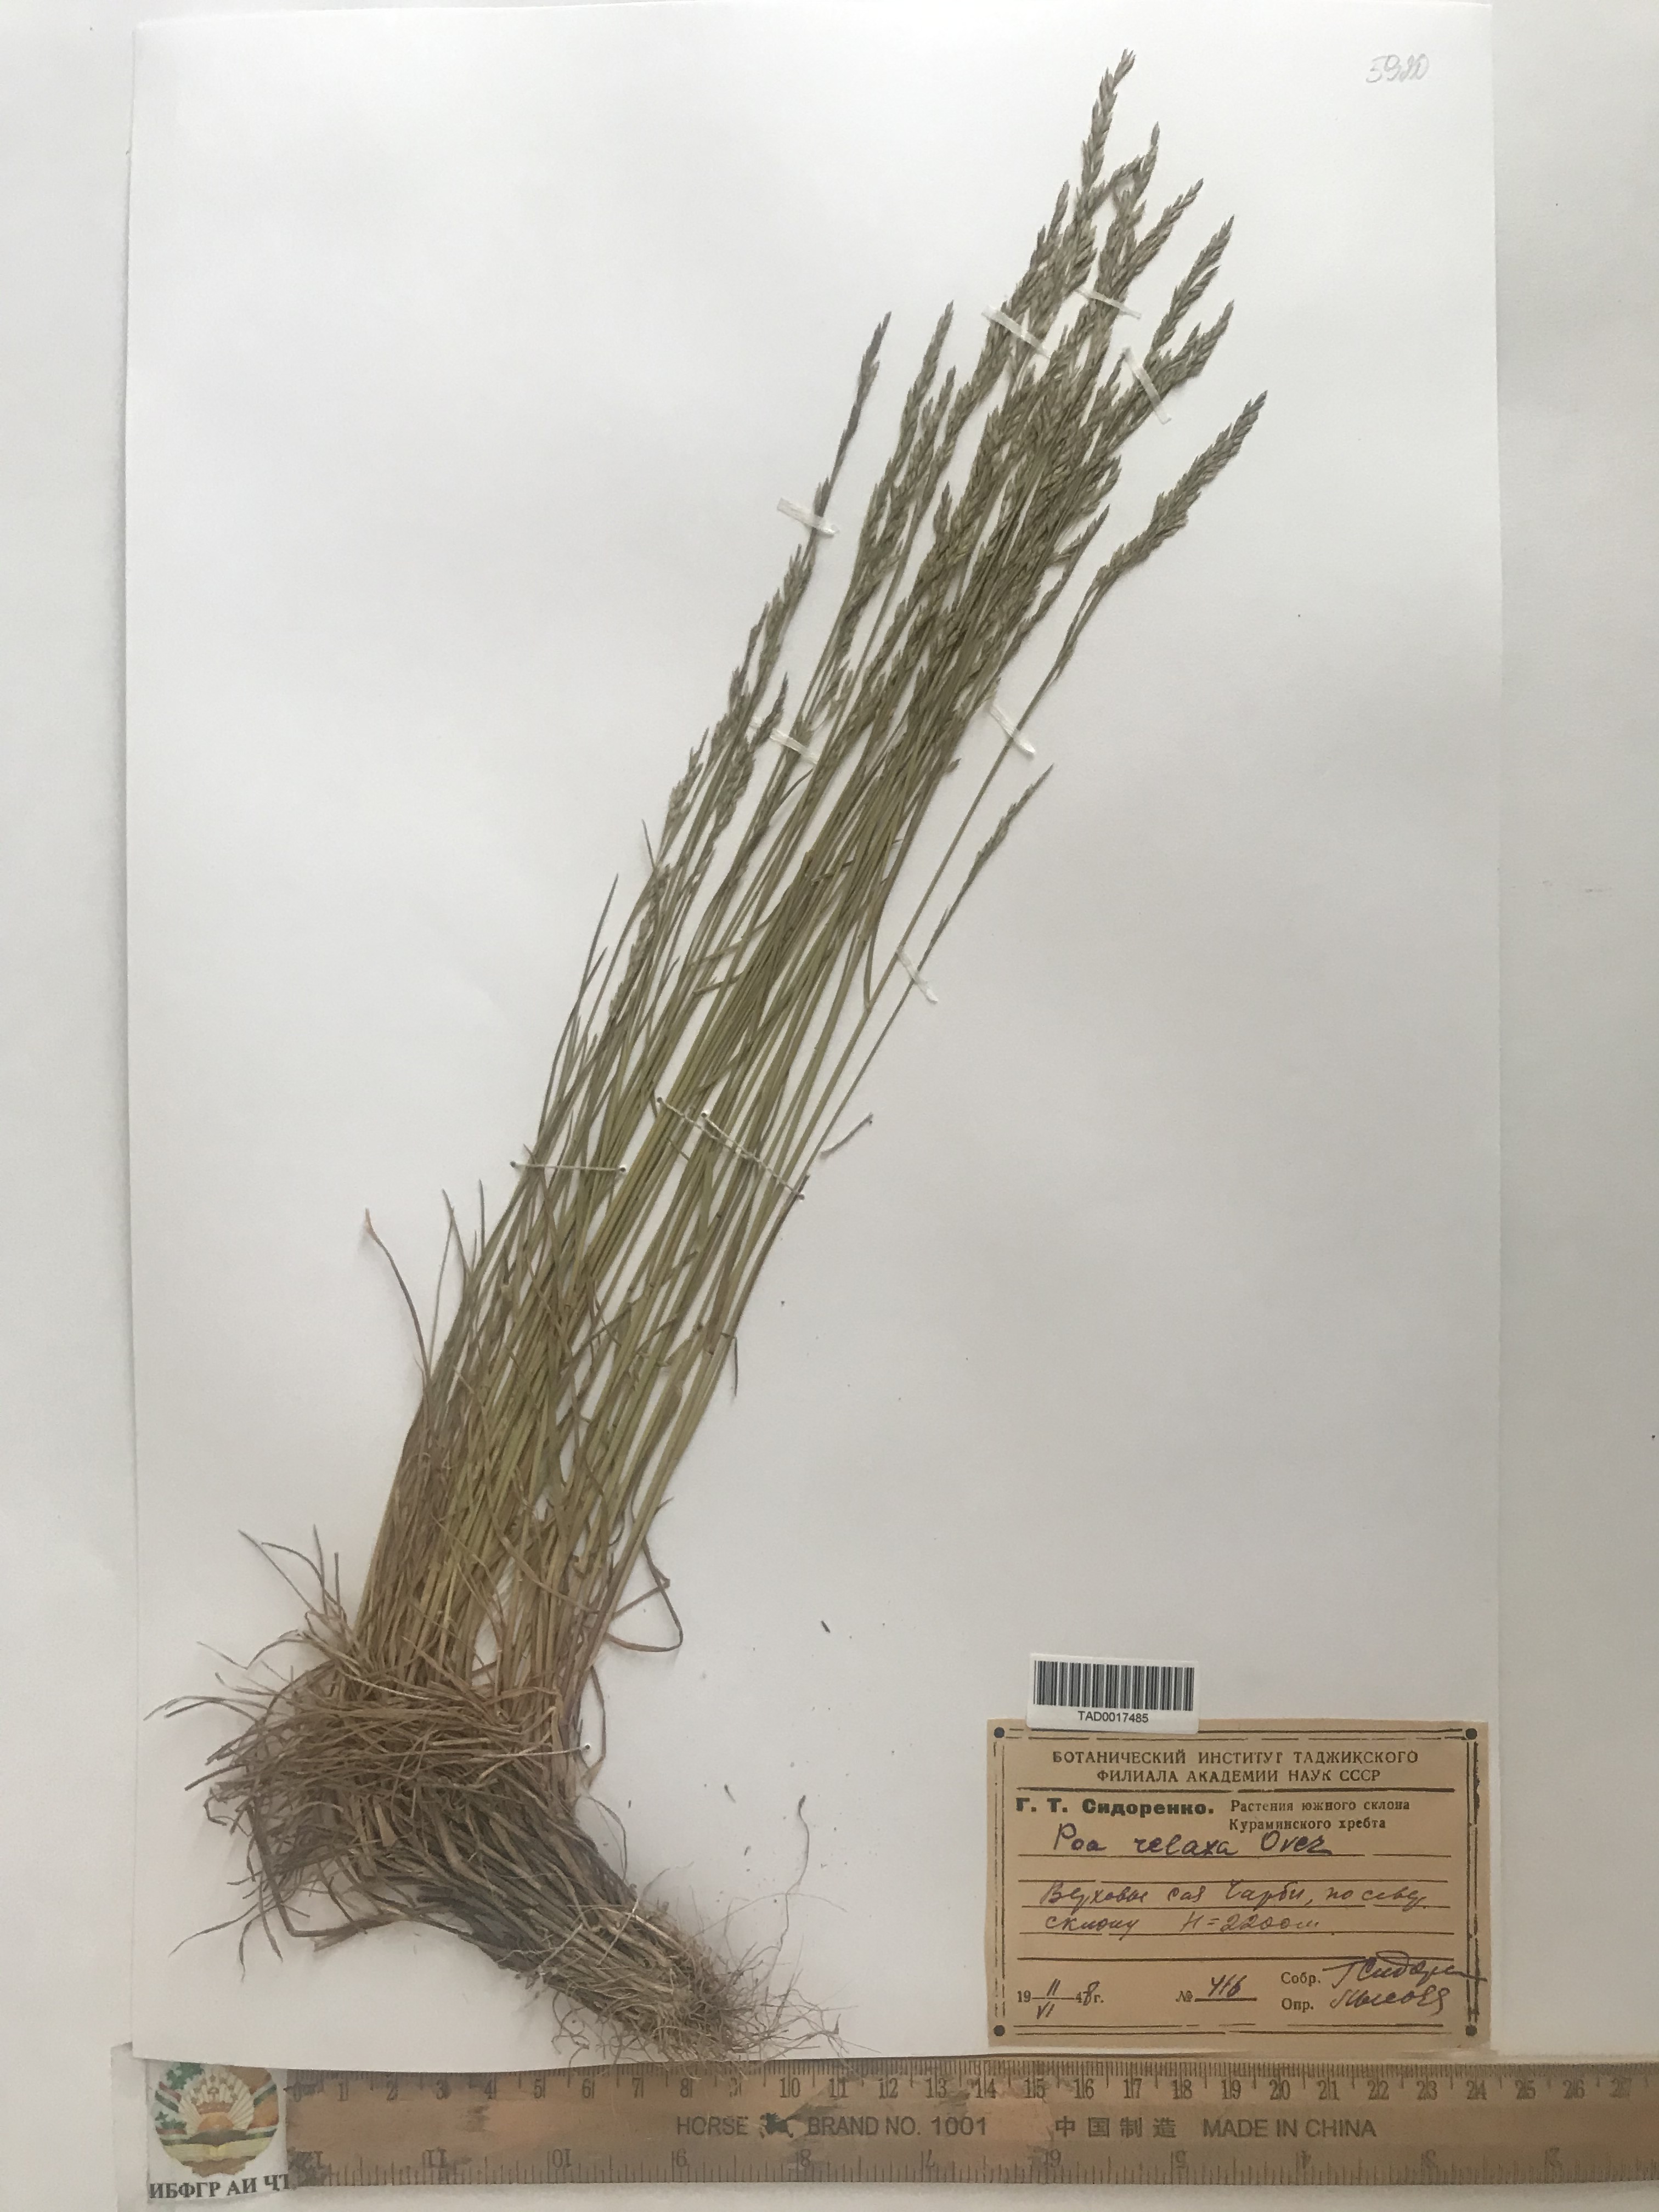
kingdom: Plantae
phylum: Tracheophyta
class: Liliopsida
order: Poales
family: Poaceae
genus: Poa
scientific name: Poa versicolor
